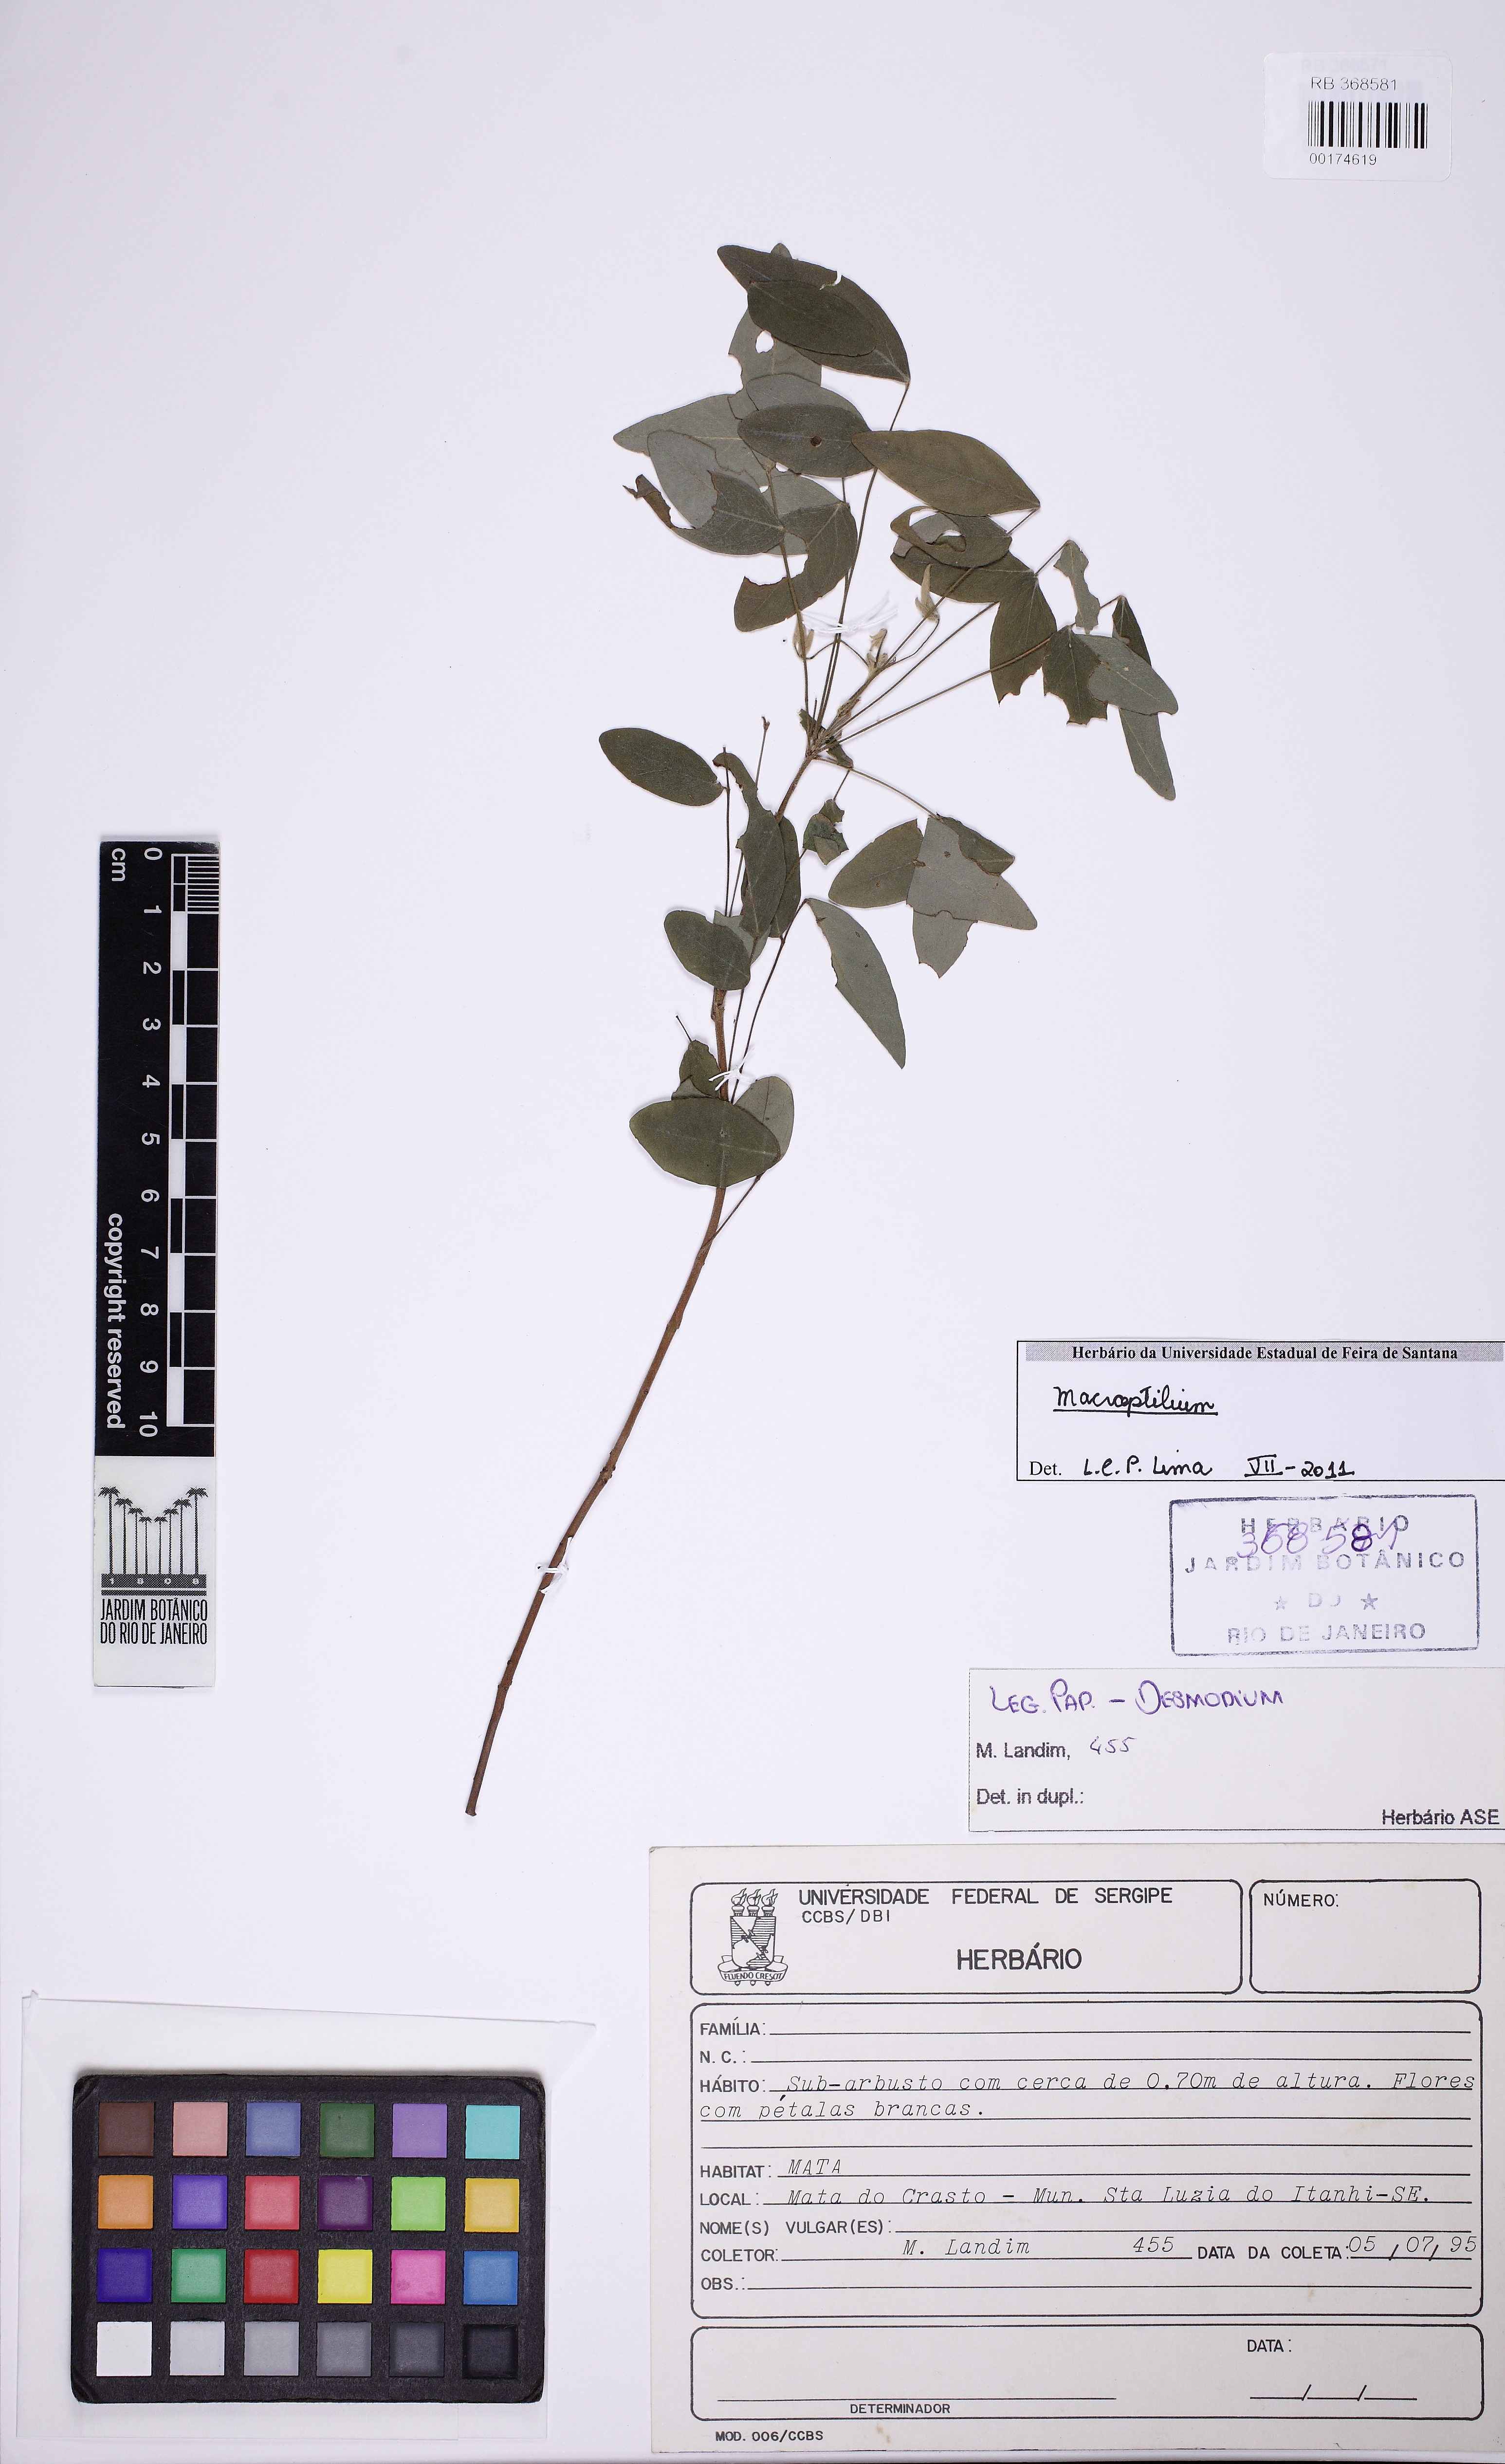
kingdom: Plantae
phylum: Tracheophyta
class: Magnoliopsida
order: Oxalidales
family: Oxalidaceae
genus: Oxalis
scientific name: Oxalis puberula
